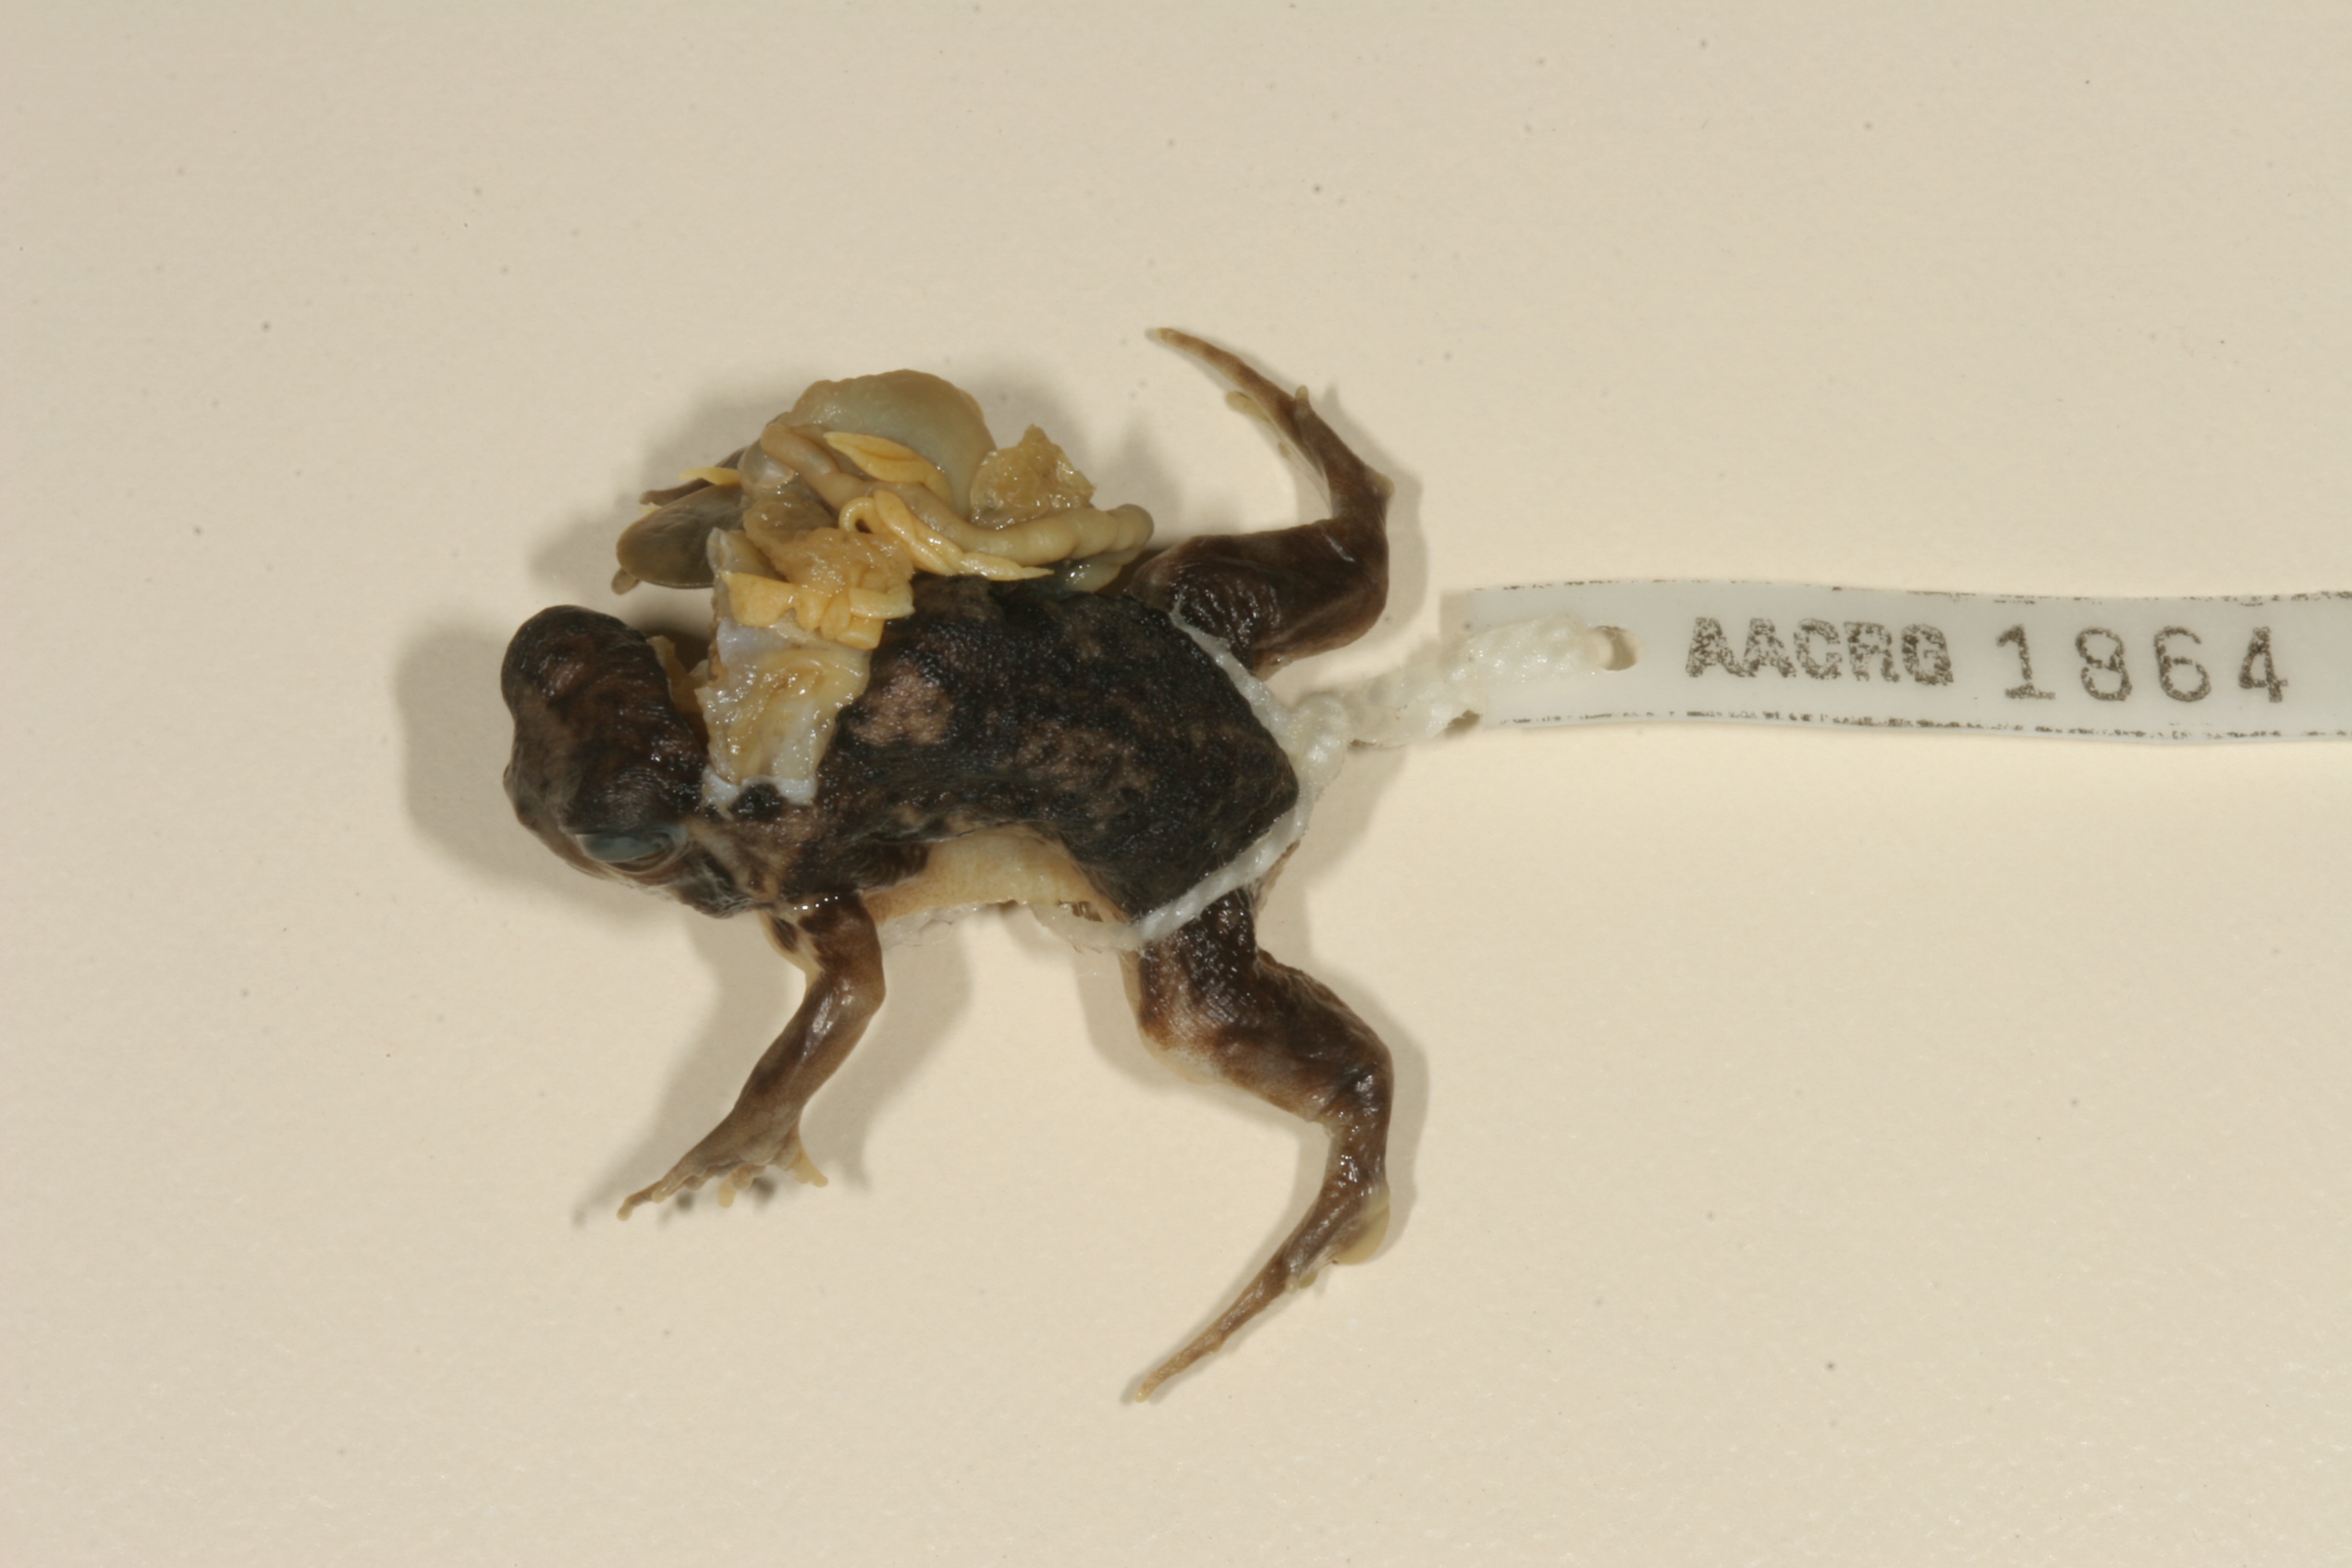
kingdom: Animalia
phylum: Chordata
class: Amphibia
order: Anura
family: Brevicipitidae
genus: Breviceps
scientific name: Breviceps adspersus
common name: Common rain frog
